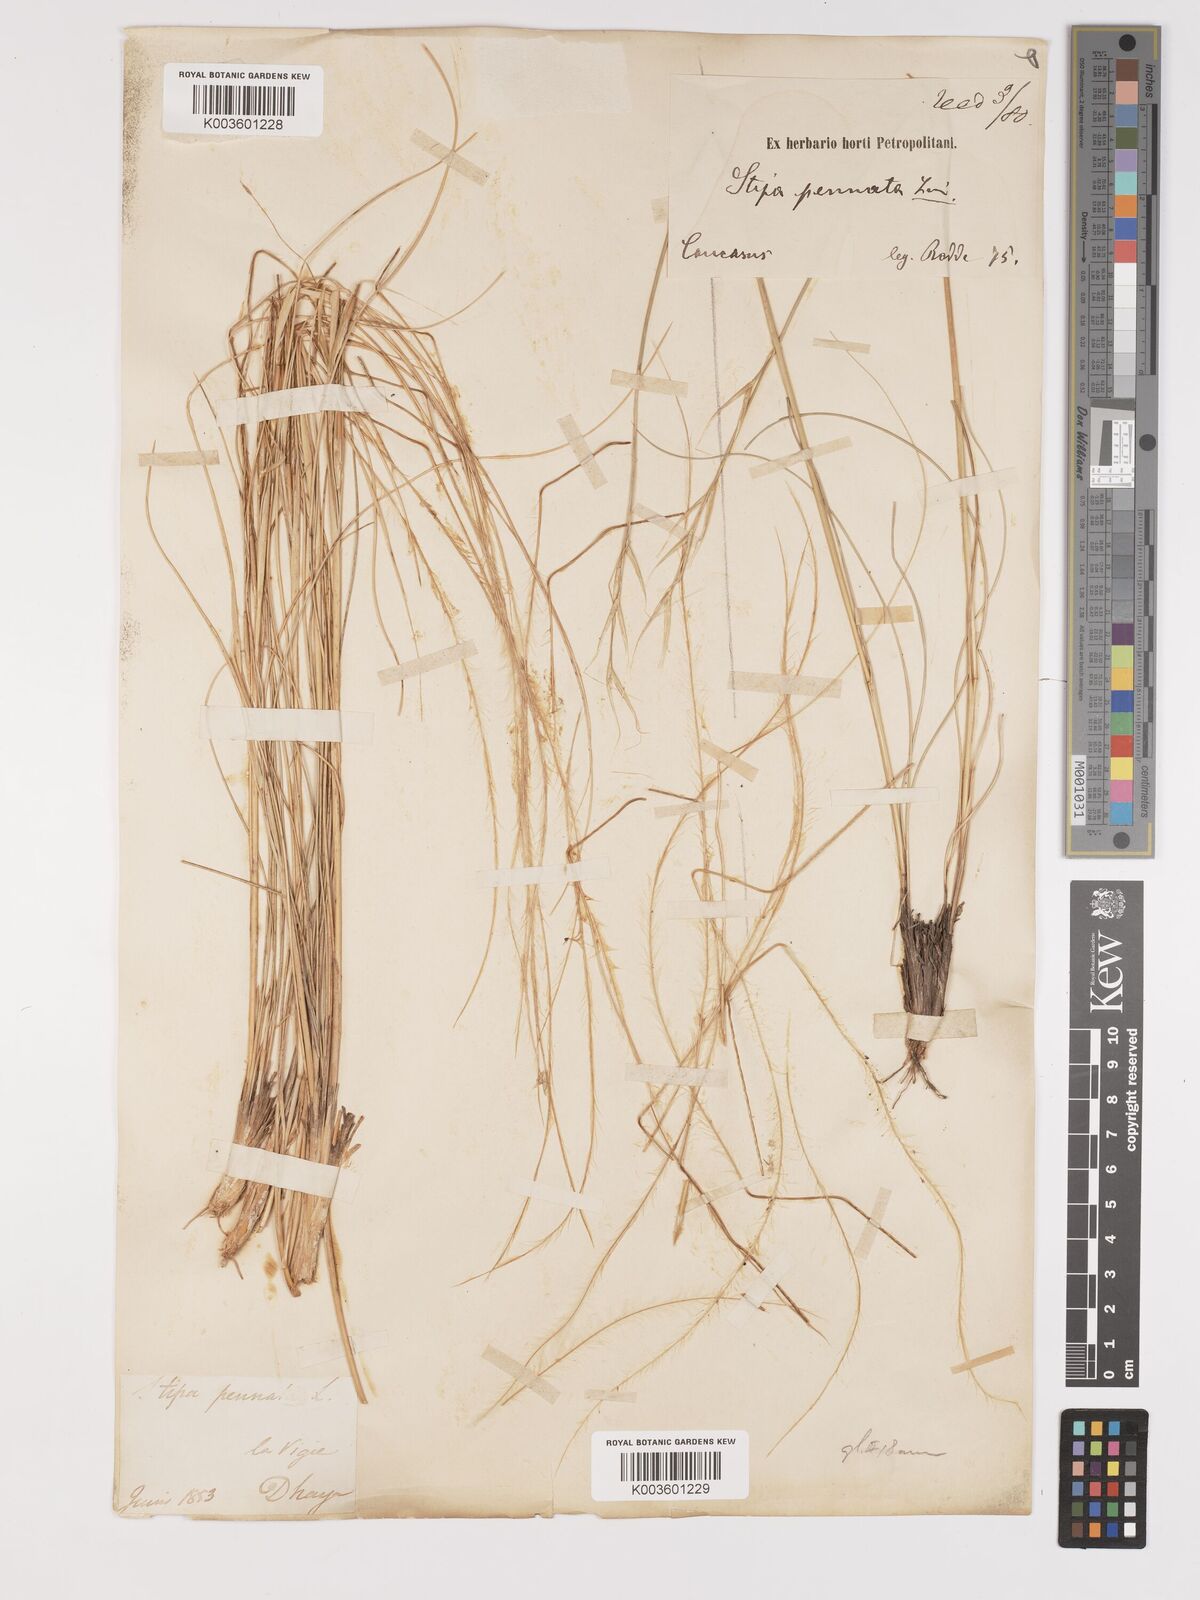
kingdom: Plantae
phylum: Tracheophyta
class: Liliopsida
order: Poales
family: Poaceae
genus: Stipa
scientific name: Stipa pennata
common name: European feather grass
